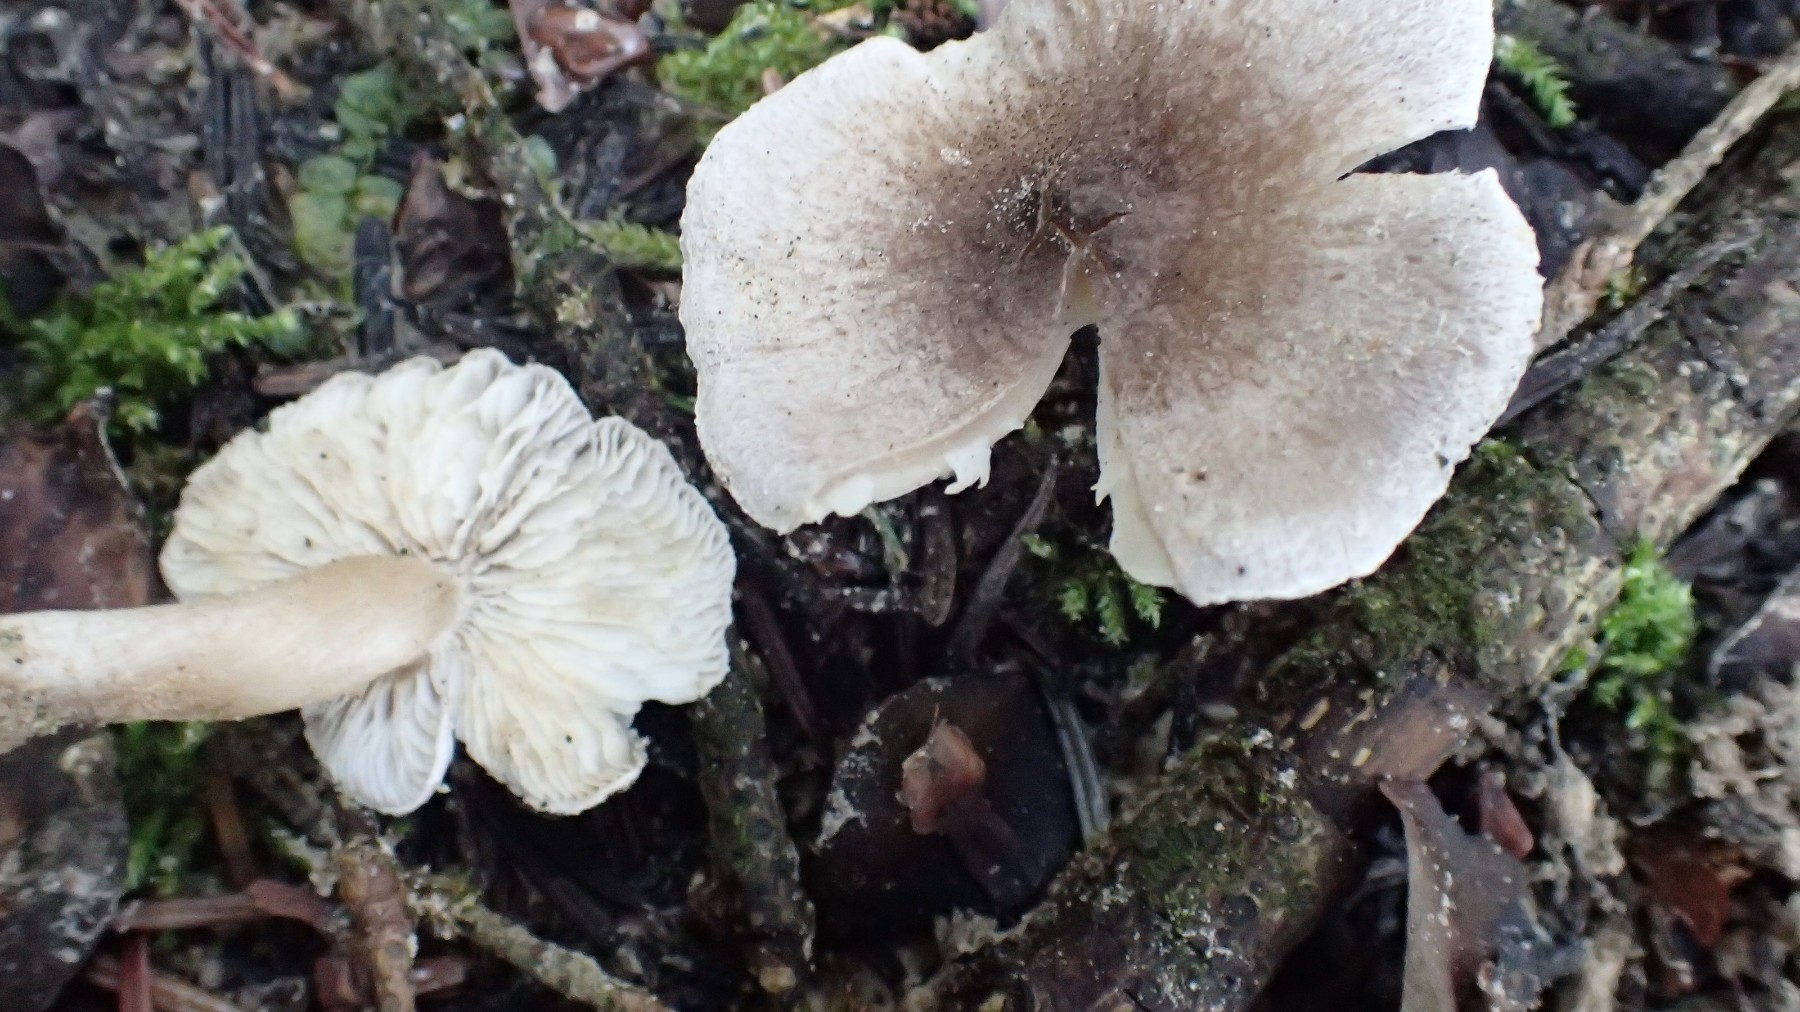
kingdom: Fungi
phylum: Basidiomycota
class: Agaricomycetes
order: Agaricales
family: Tricholomataceae
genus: Tricholoma
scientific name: Tricholoma argyraceum
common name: slør-ridderhat
